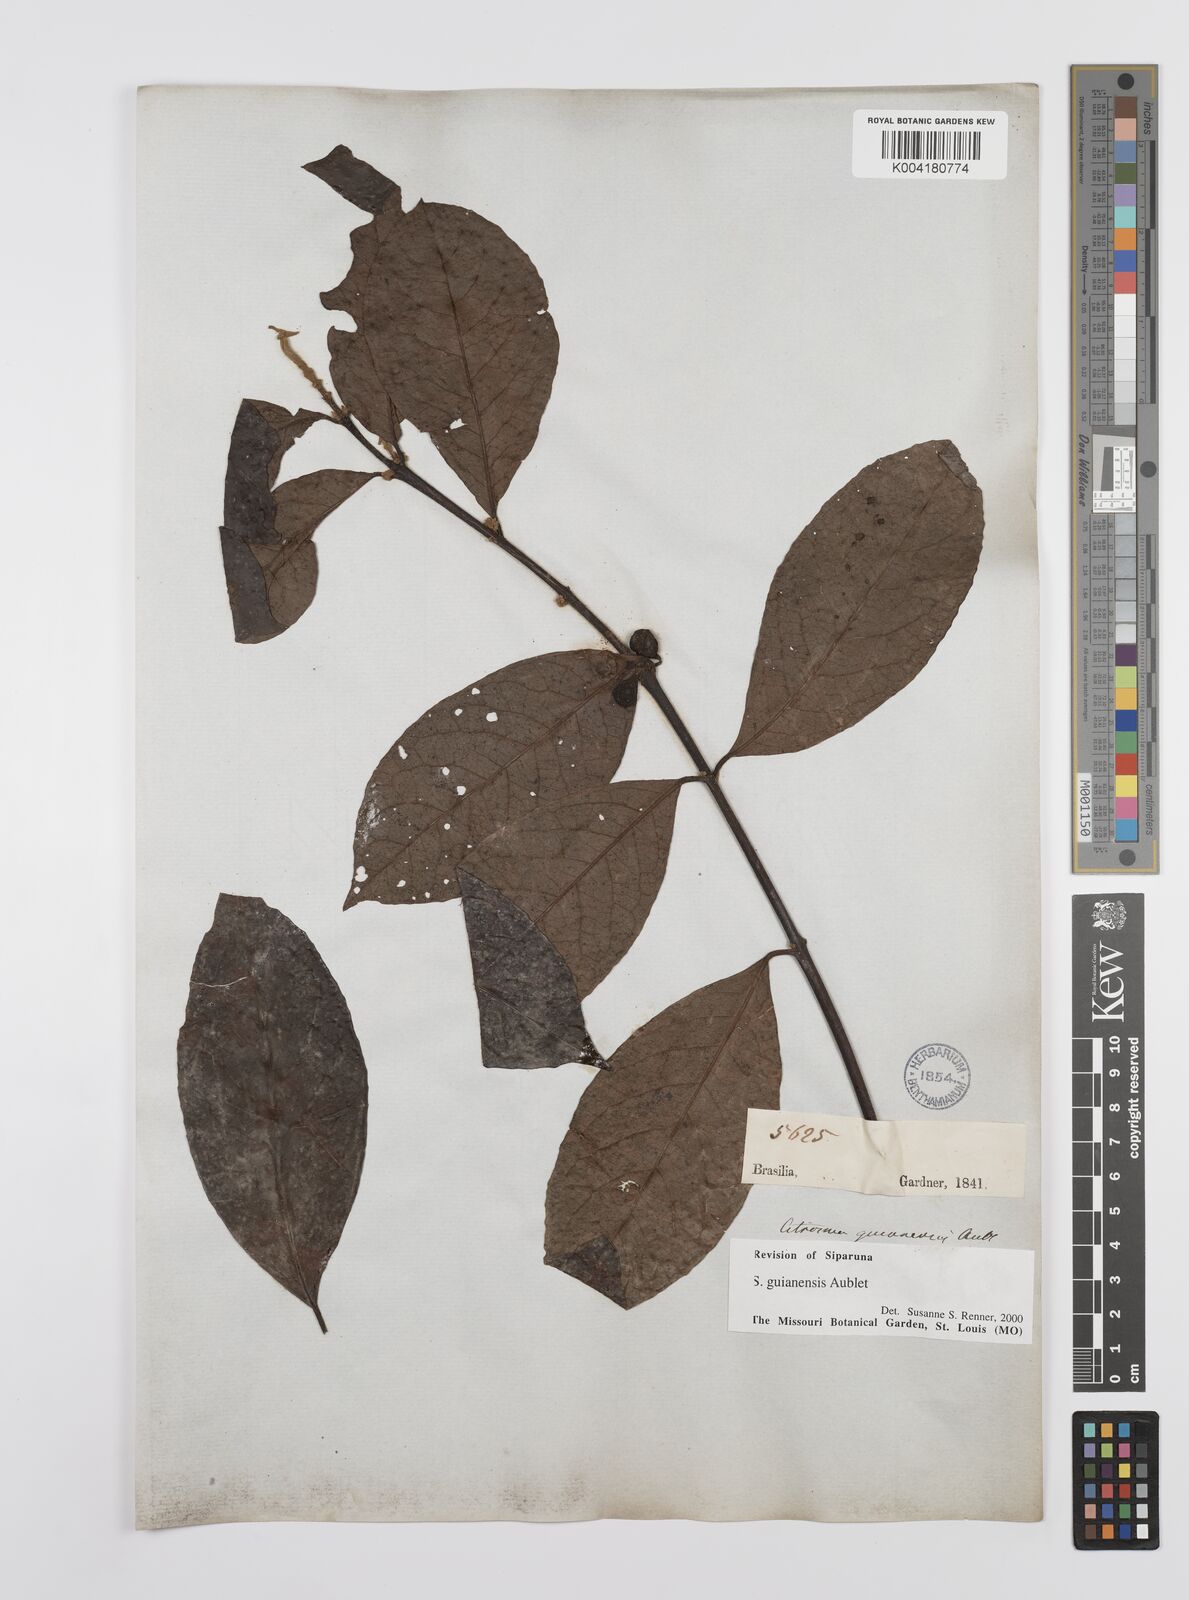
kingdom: Plantae
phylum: Tracheophyta
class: Magnoliopsida
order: Laurales
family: Siparunaceae
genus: Siparuna
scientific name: Siparuna guianensis
